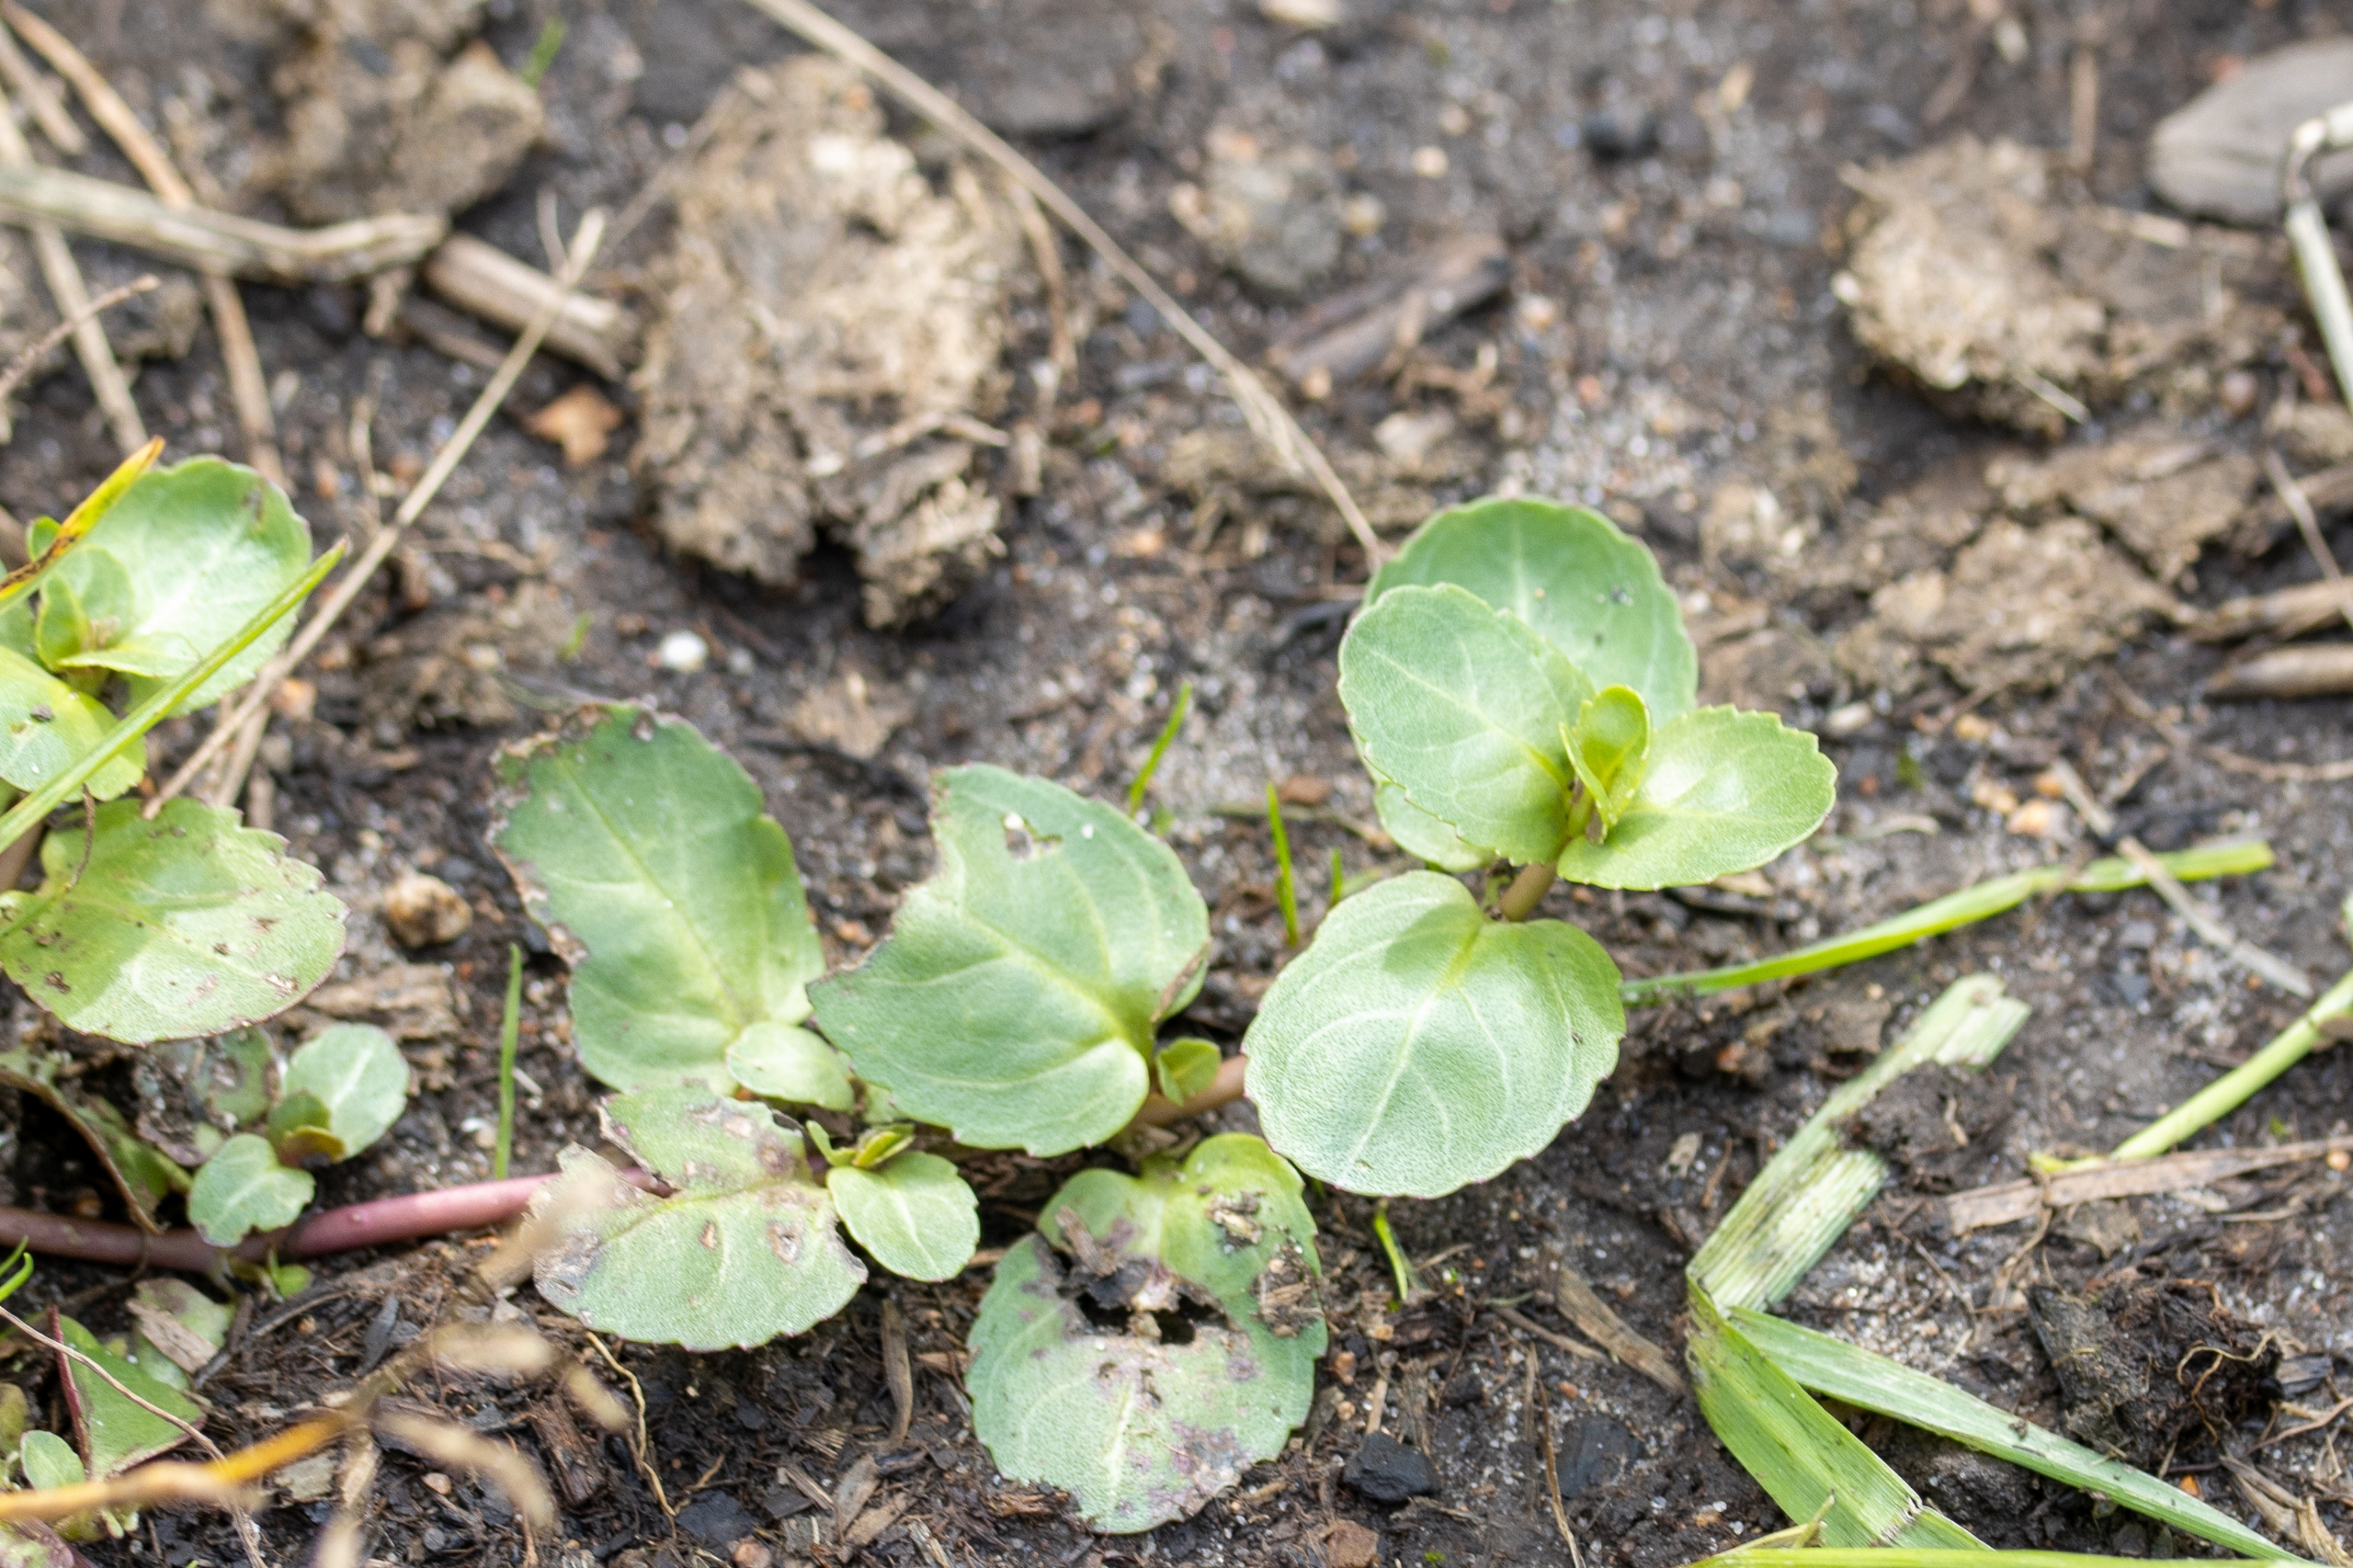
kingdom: Plantae
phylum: Tracheophyta
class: Magnoliopsida
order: Lamiales
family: Plantaginaceae
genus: Veronica
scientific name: Veronica beccabunga
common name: Tykbladet ærenpris
